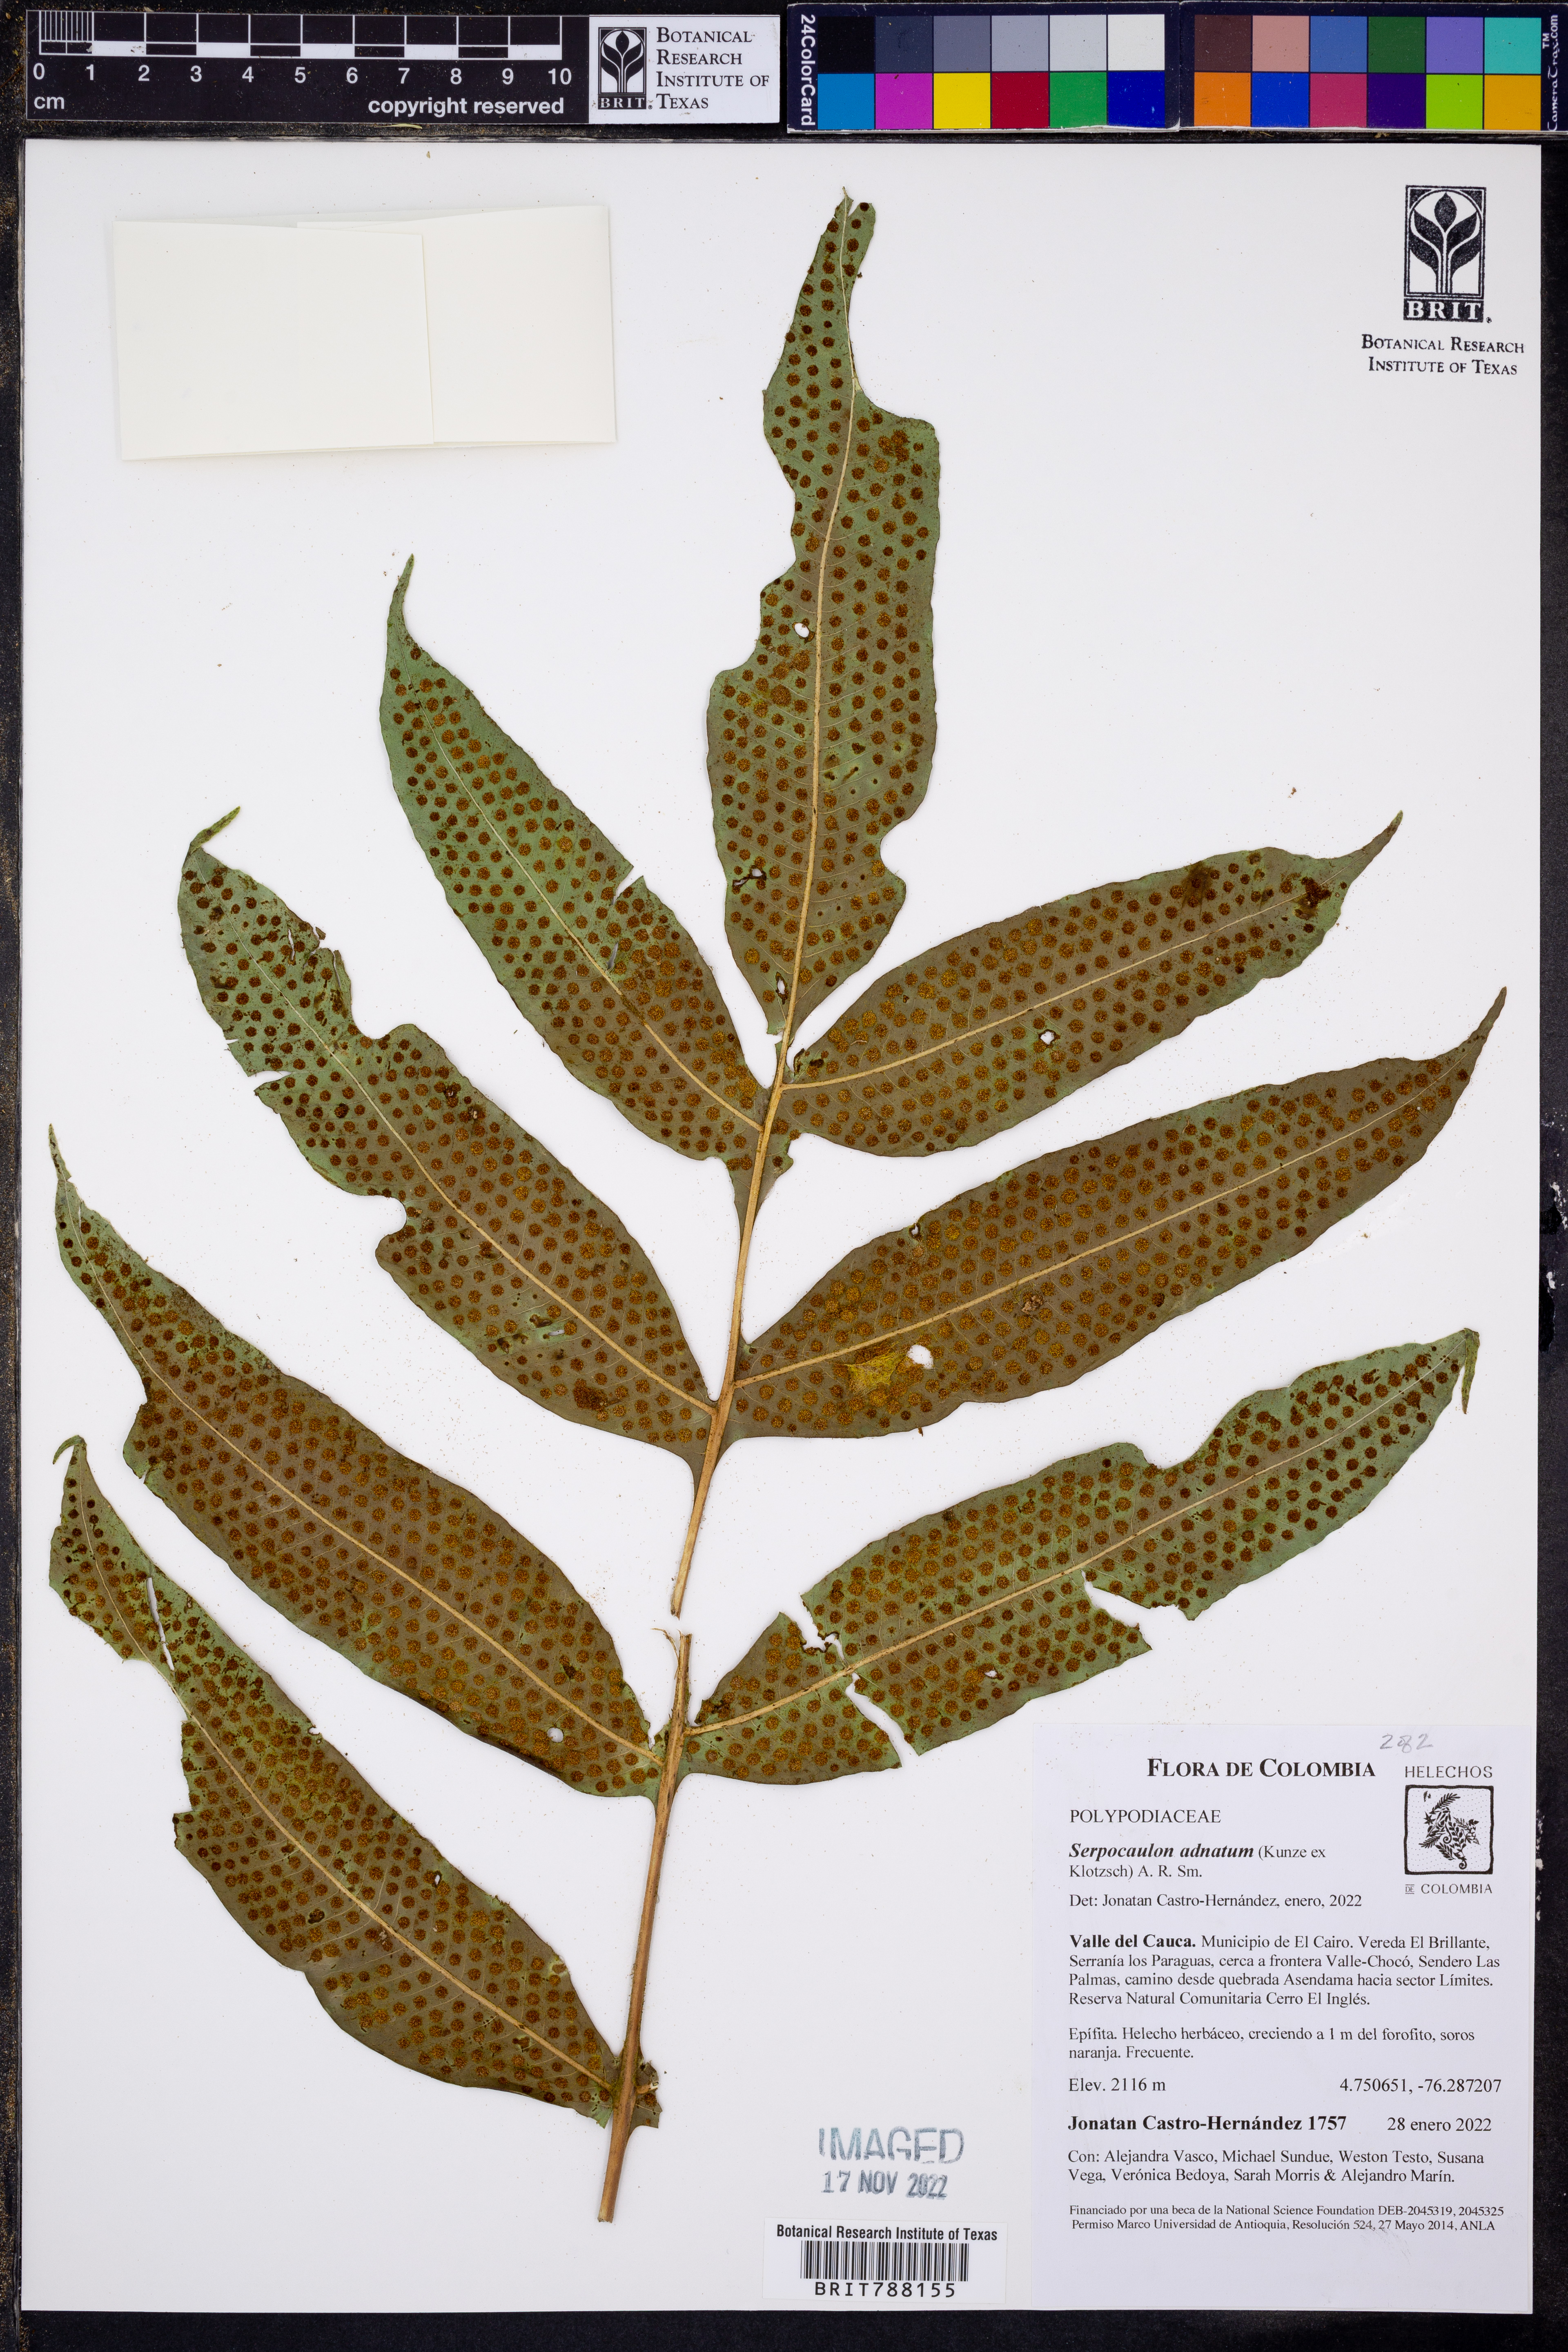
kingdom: Plantae
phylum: Tracheophyta
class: Polypodiopsida
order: Polypodiales
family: Polypodiaceae
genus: Serpocaulon
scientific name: Serpocaulon adnatum
